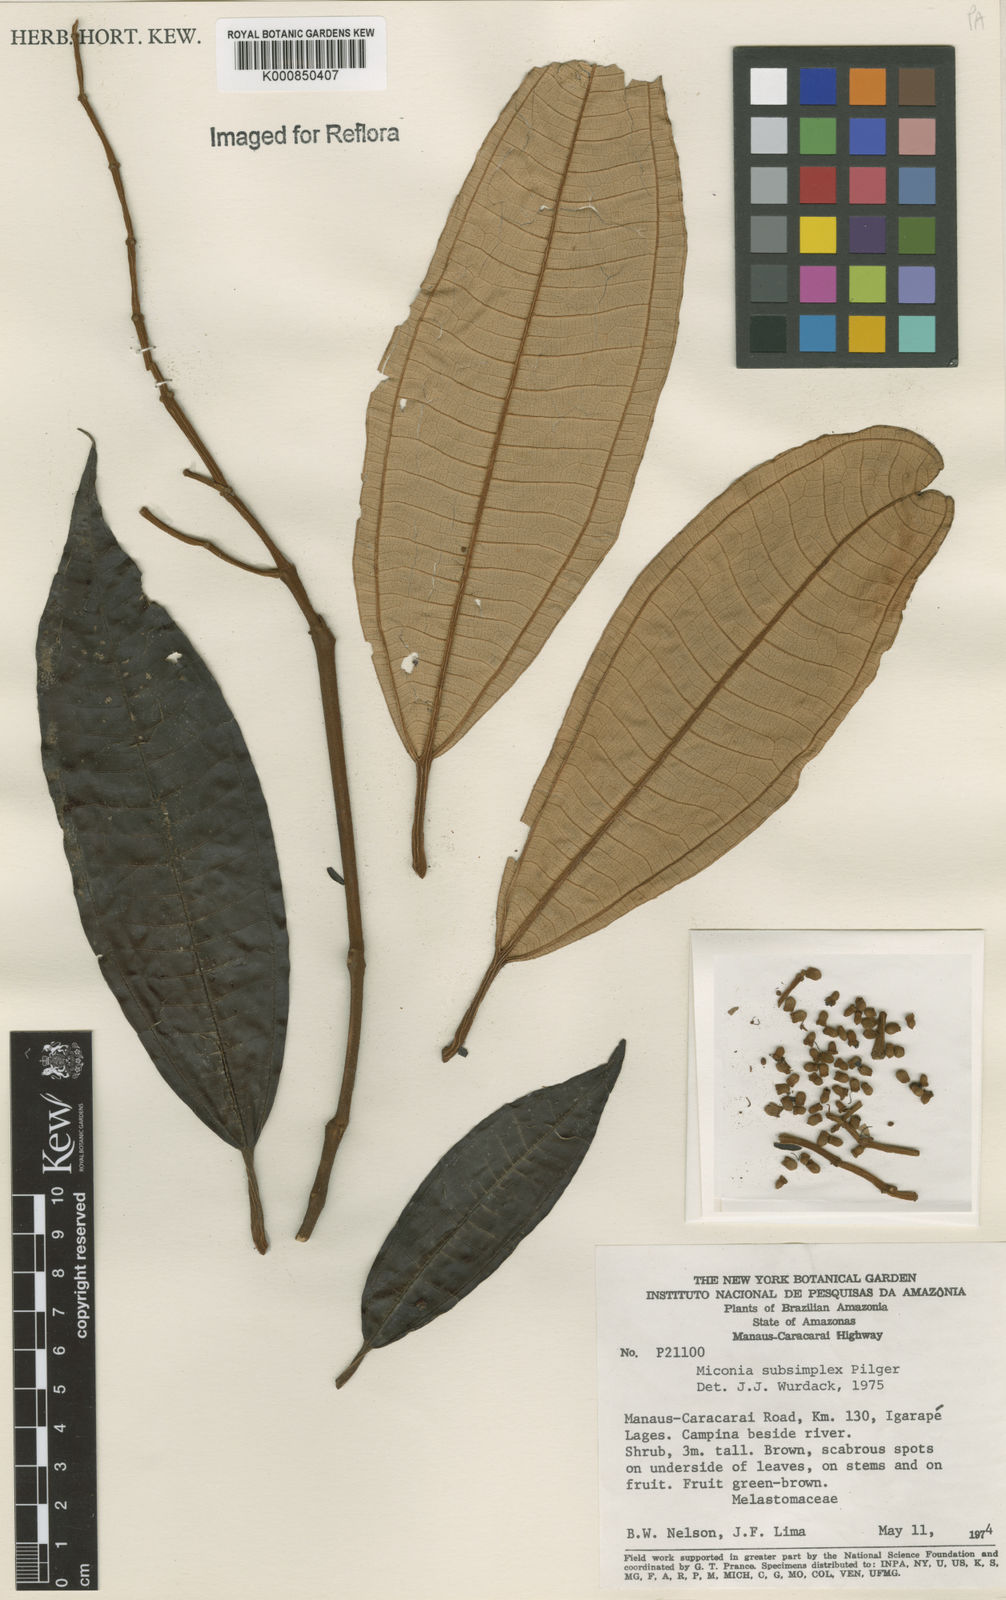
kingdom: Plantae
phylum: Tracheophyta
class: Magnoliopsida
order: Myrtales
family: Melastomataceae
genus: Miconia
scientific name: Miconia subsimplex
